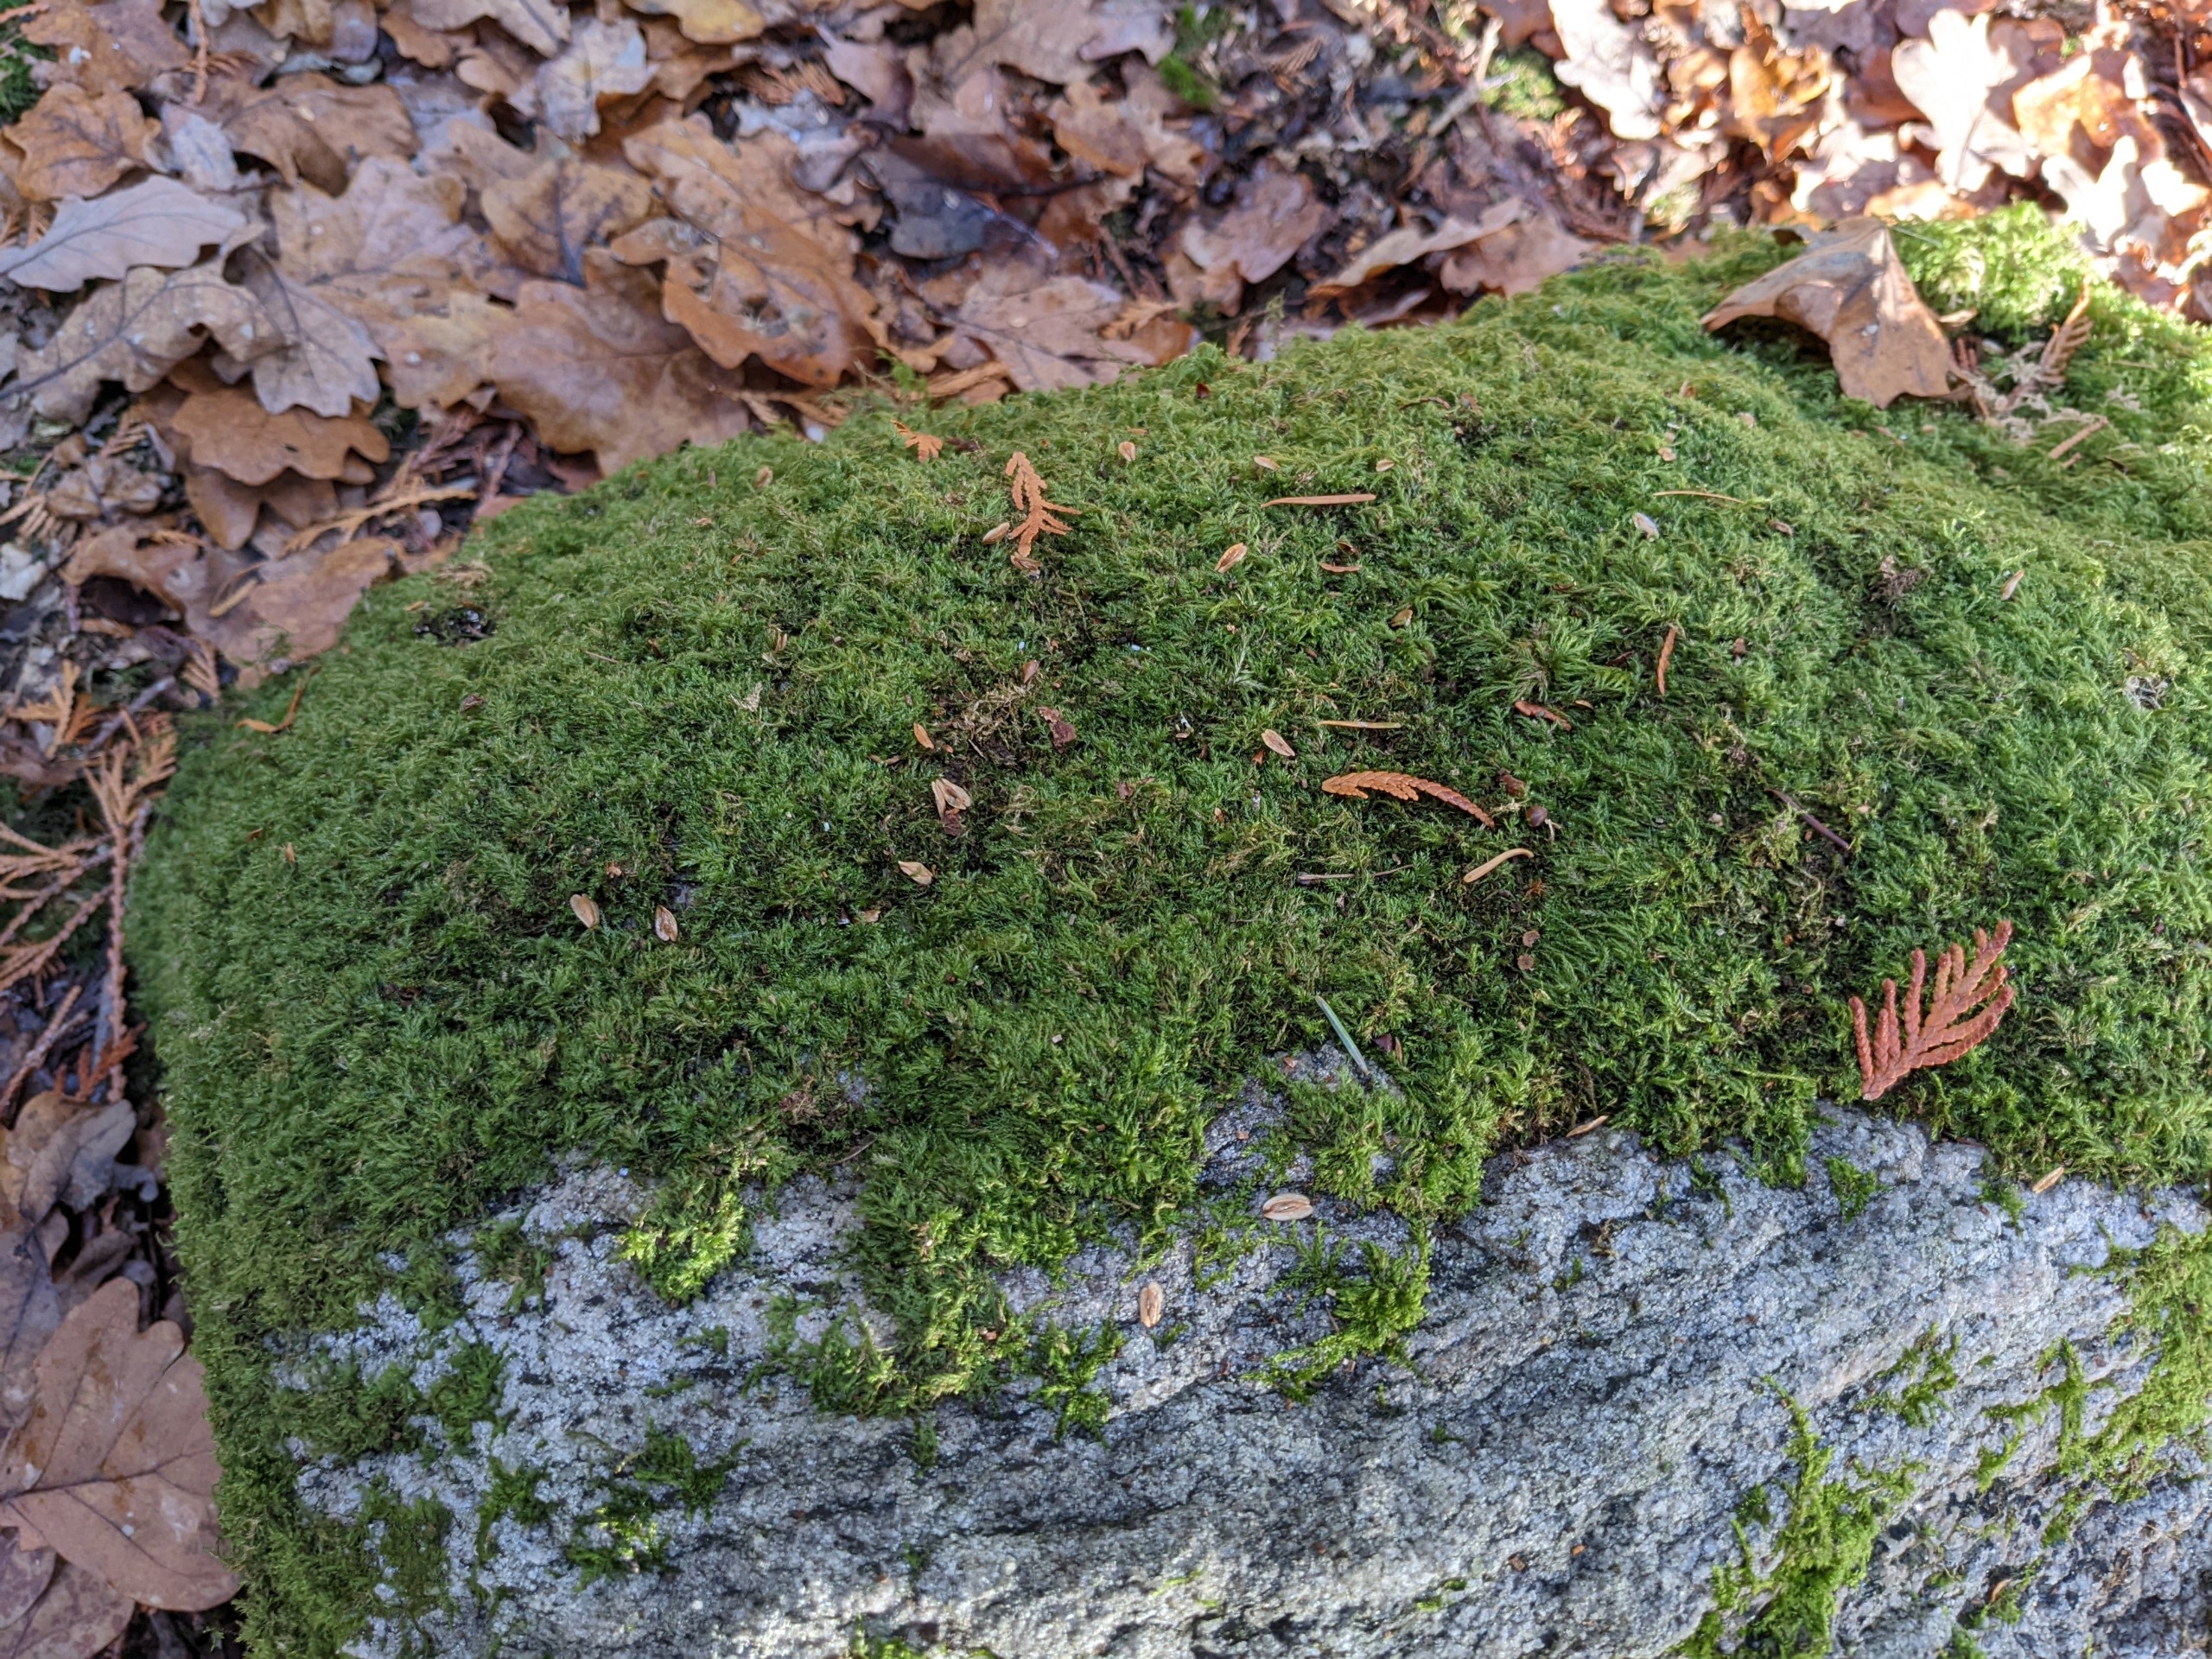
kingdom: Plantae
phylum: Bryophyta
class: Bryopsida
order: Hypnales
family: Lembophyllaceae
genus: Pseudisothecium
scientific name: Pseudisothecium myosuroides
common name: Slank stammemos
